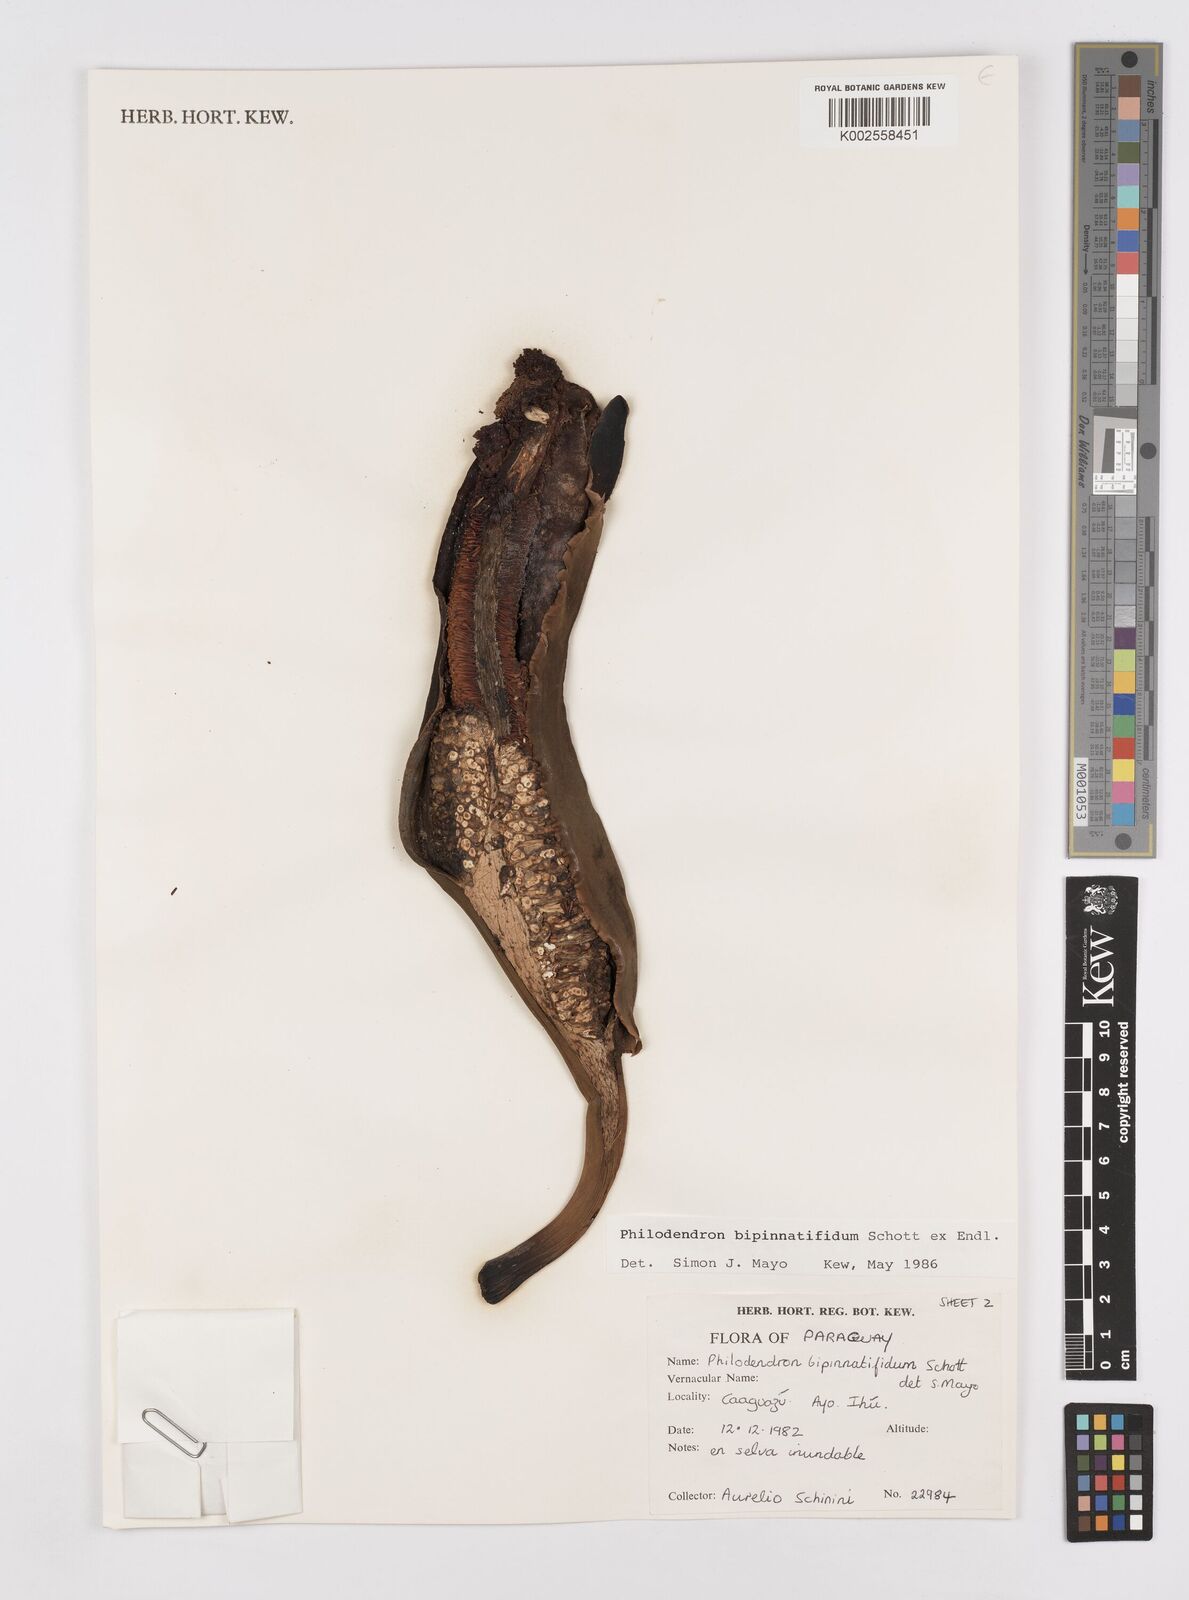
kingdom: Plantae
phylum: Tracheophyta
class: Liliopsida
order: Alismatales
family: Araceae
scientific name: Araceae
